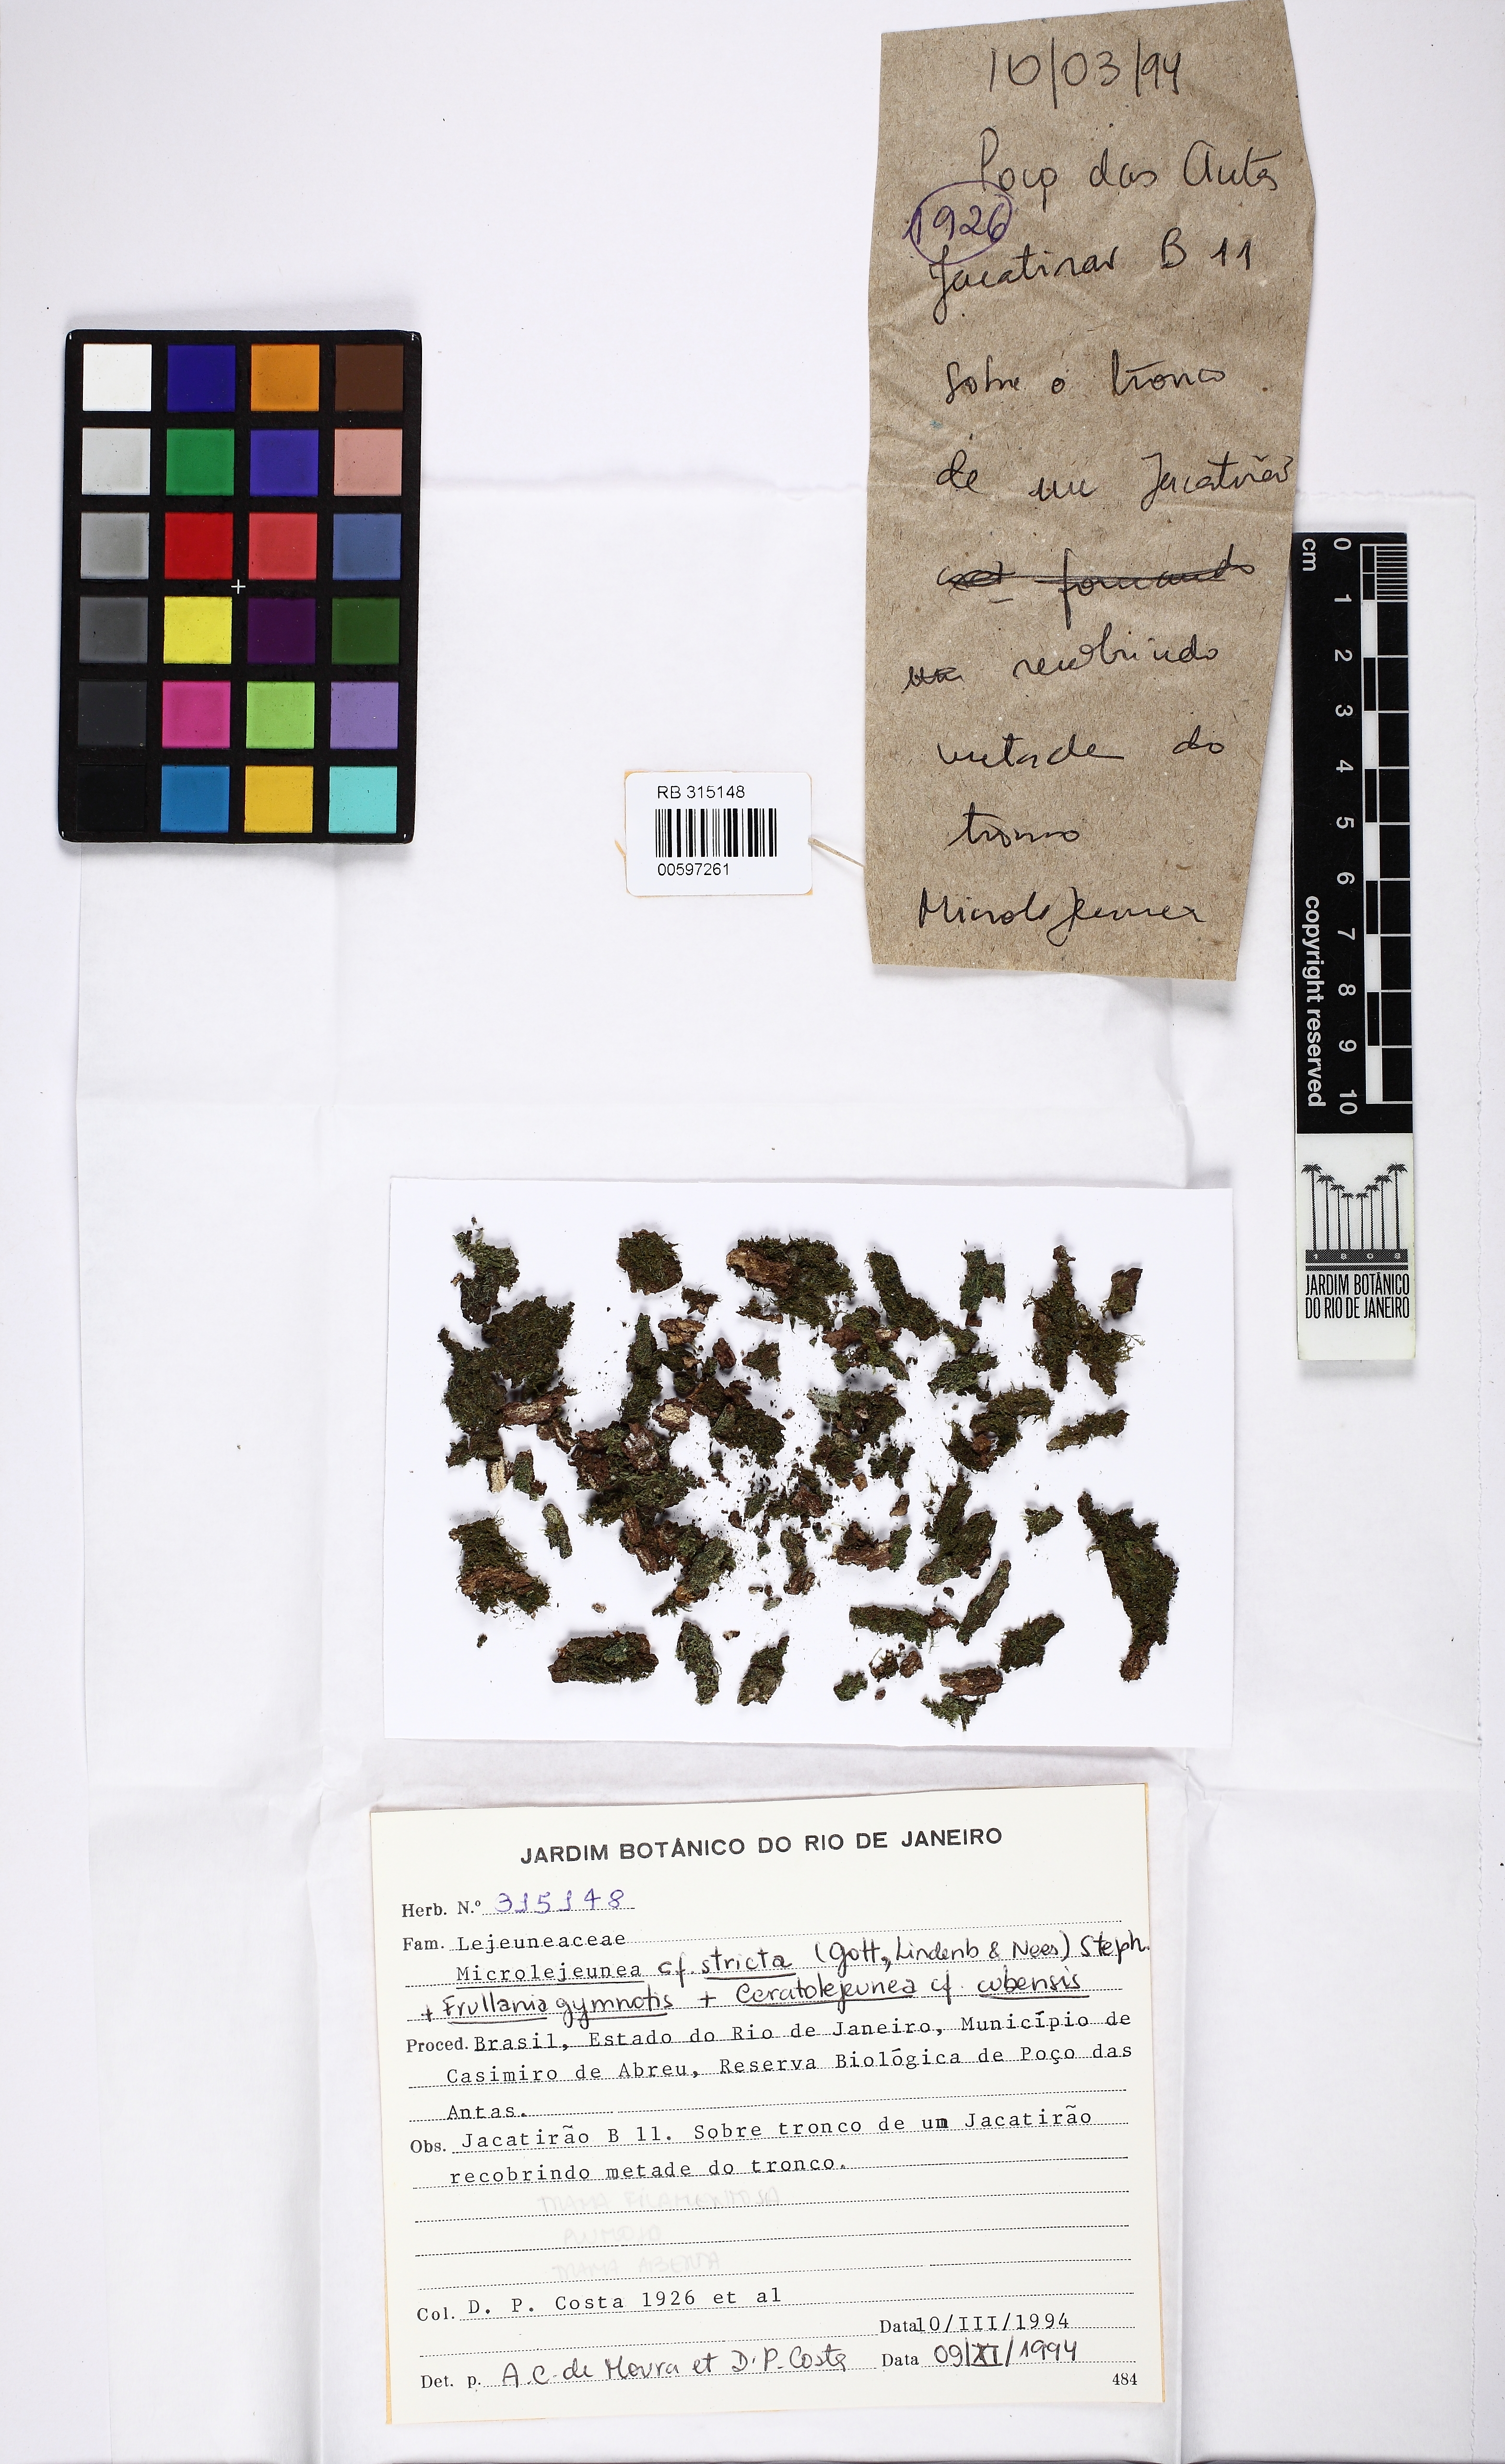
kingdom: Plantae
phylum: Marchantiophyta
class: Jungermanniopsida
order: Porellales
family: Lejeuneaceae
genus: Microlejeunea
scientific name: Microlejeunea diversiloba
